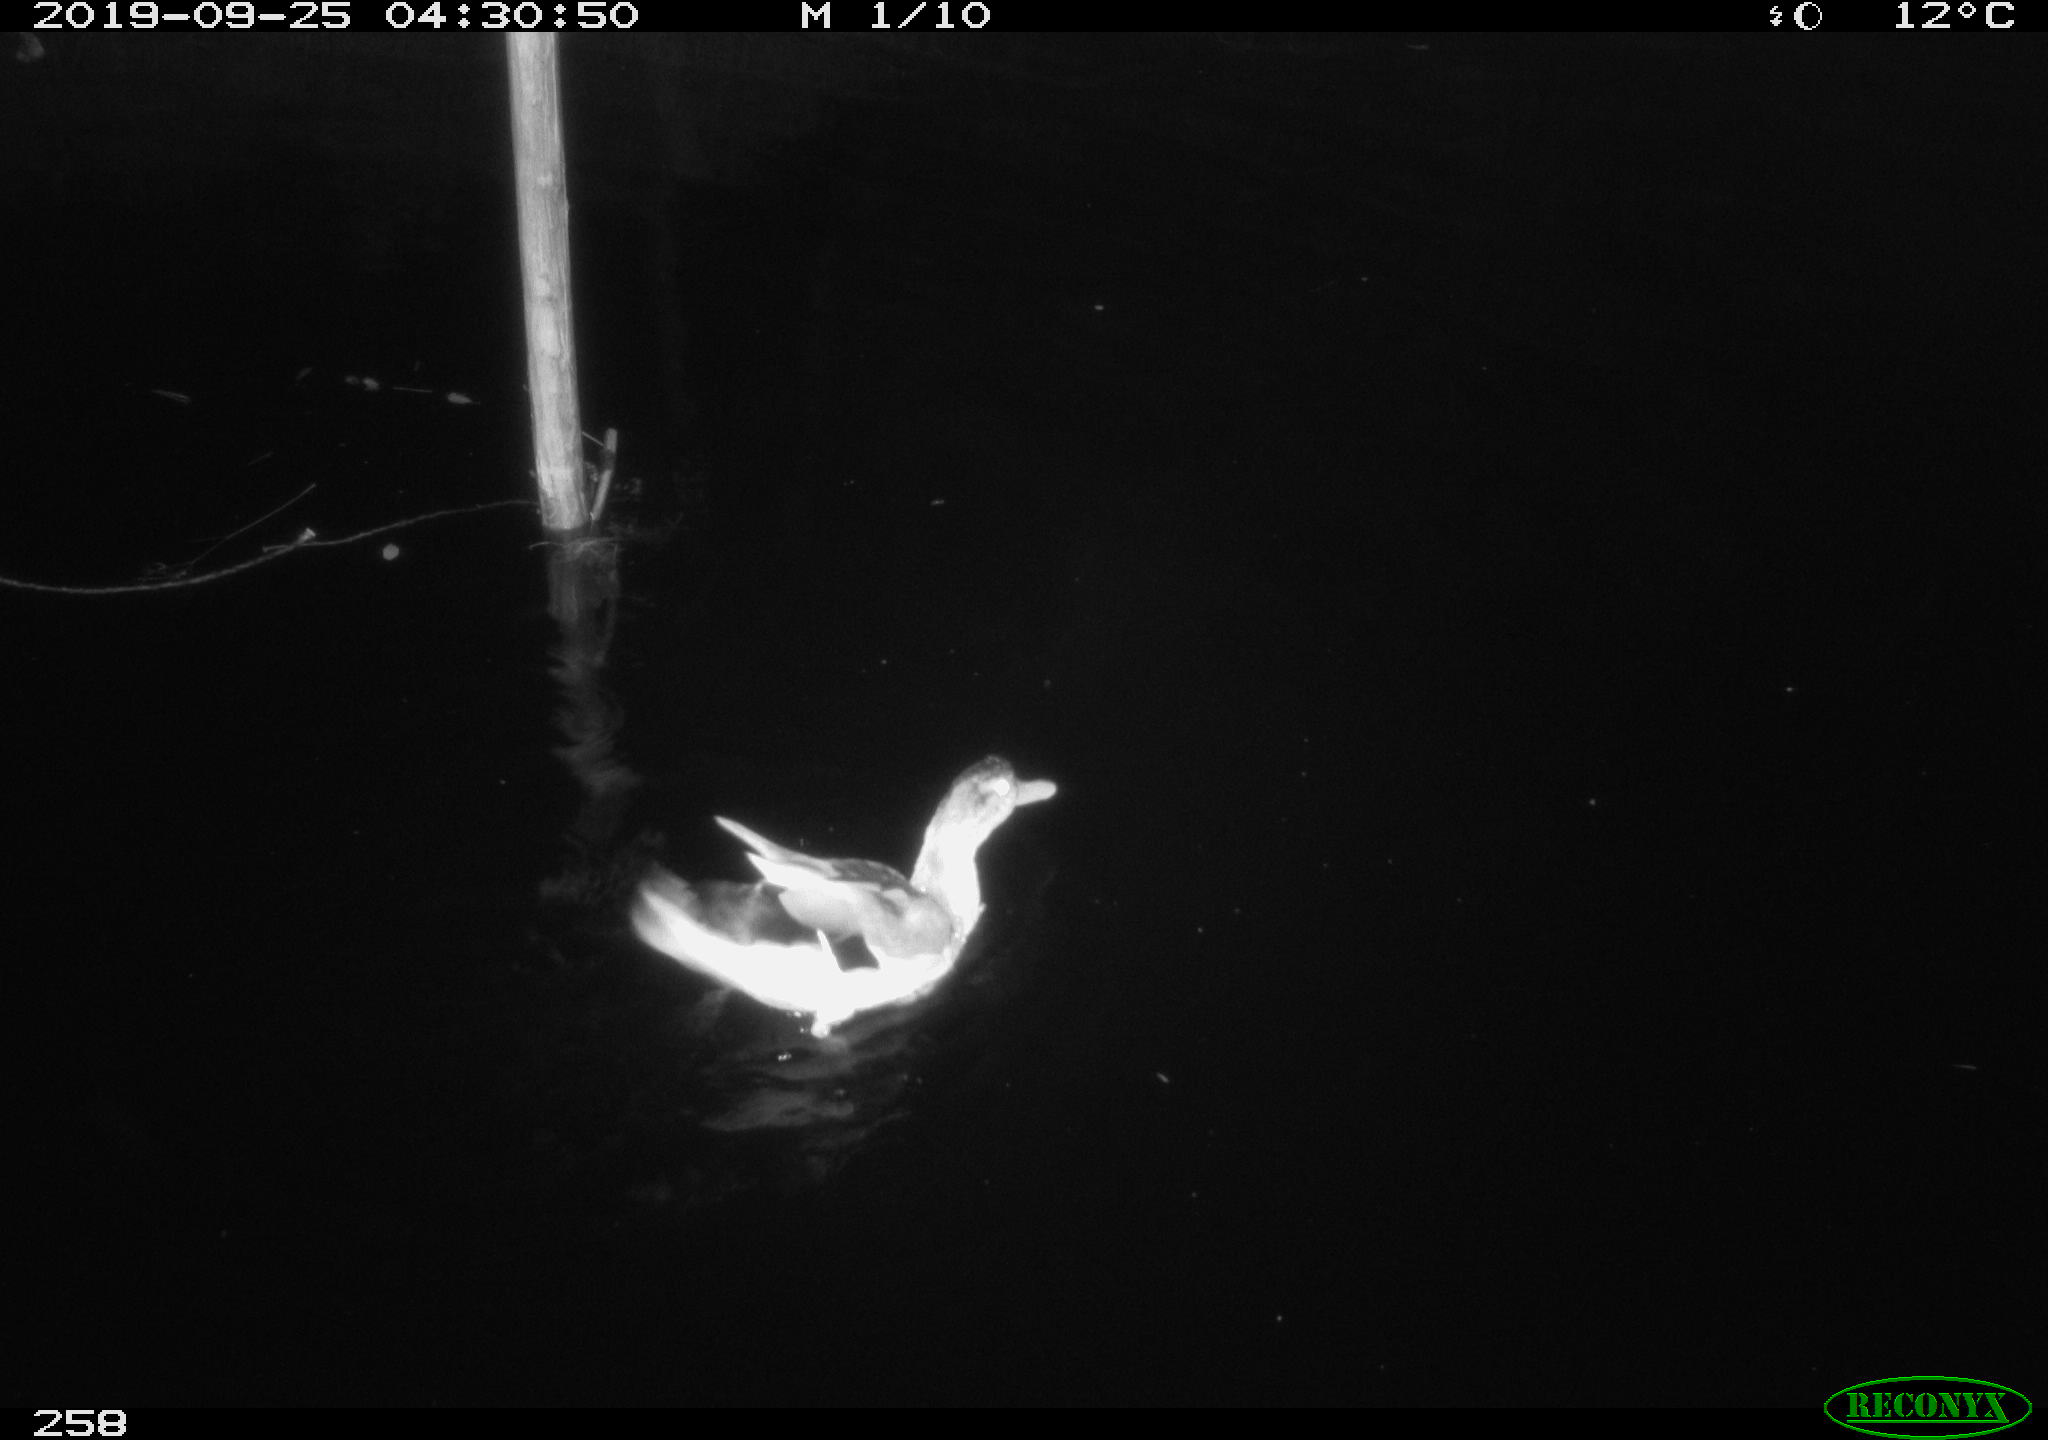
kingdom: Animalia
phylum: Chordata
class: Aves
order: Anseriformes
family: Anatidae
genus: Anas
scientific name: Anas platyrhynchos
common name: Mallard
